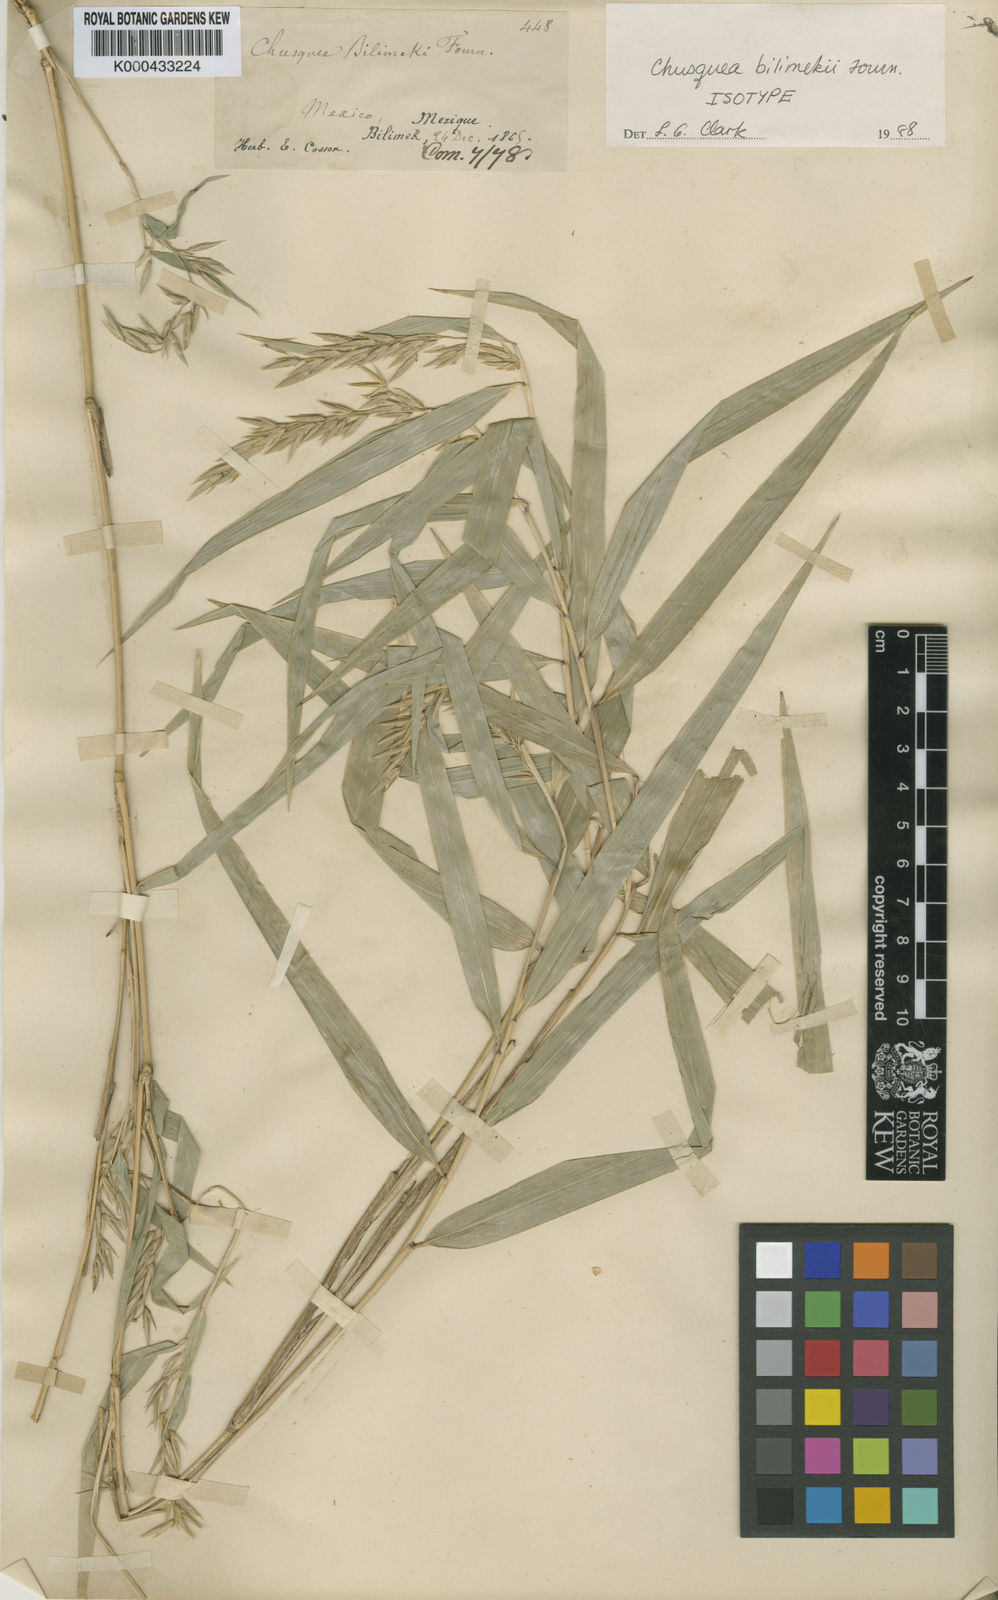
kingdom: Plantae
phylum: Tracheophyta
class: Liliopsida
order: Poales
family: Poaceae
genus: Chusquea
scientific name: Chusquea bilimekii
